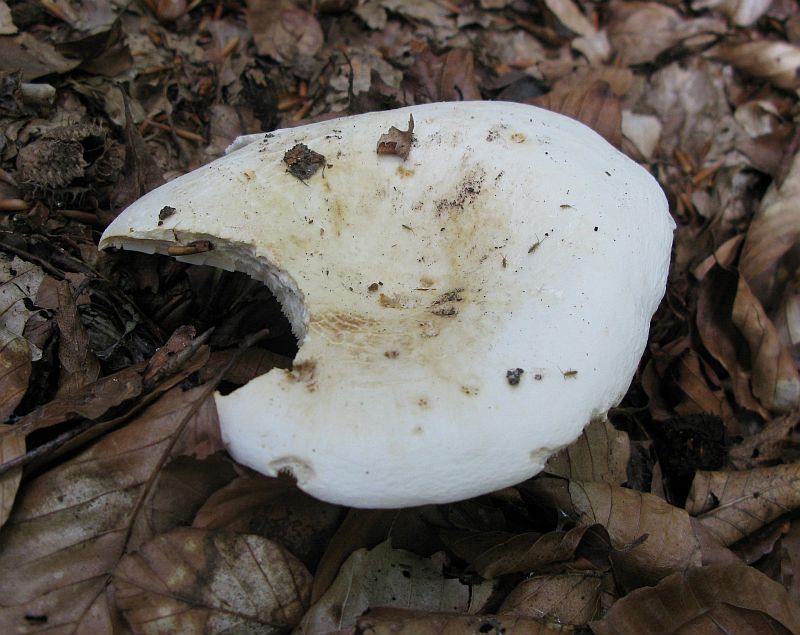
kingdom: Fungi
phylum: Basidiomycota
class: Agaricomycetes
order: Russulales
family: Russulaceae
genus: Lactifluus
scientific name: Lactifluus vellereus
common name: hvidfiltet mælkehat
